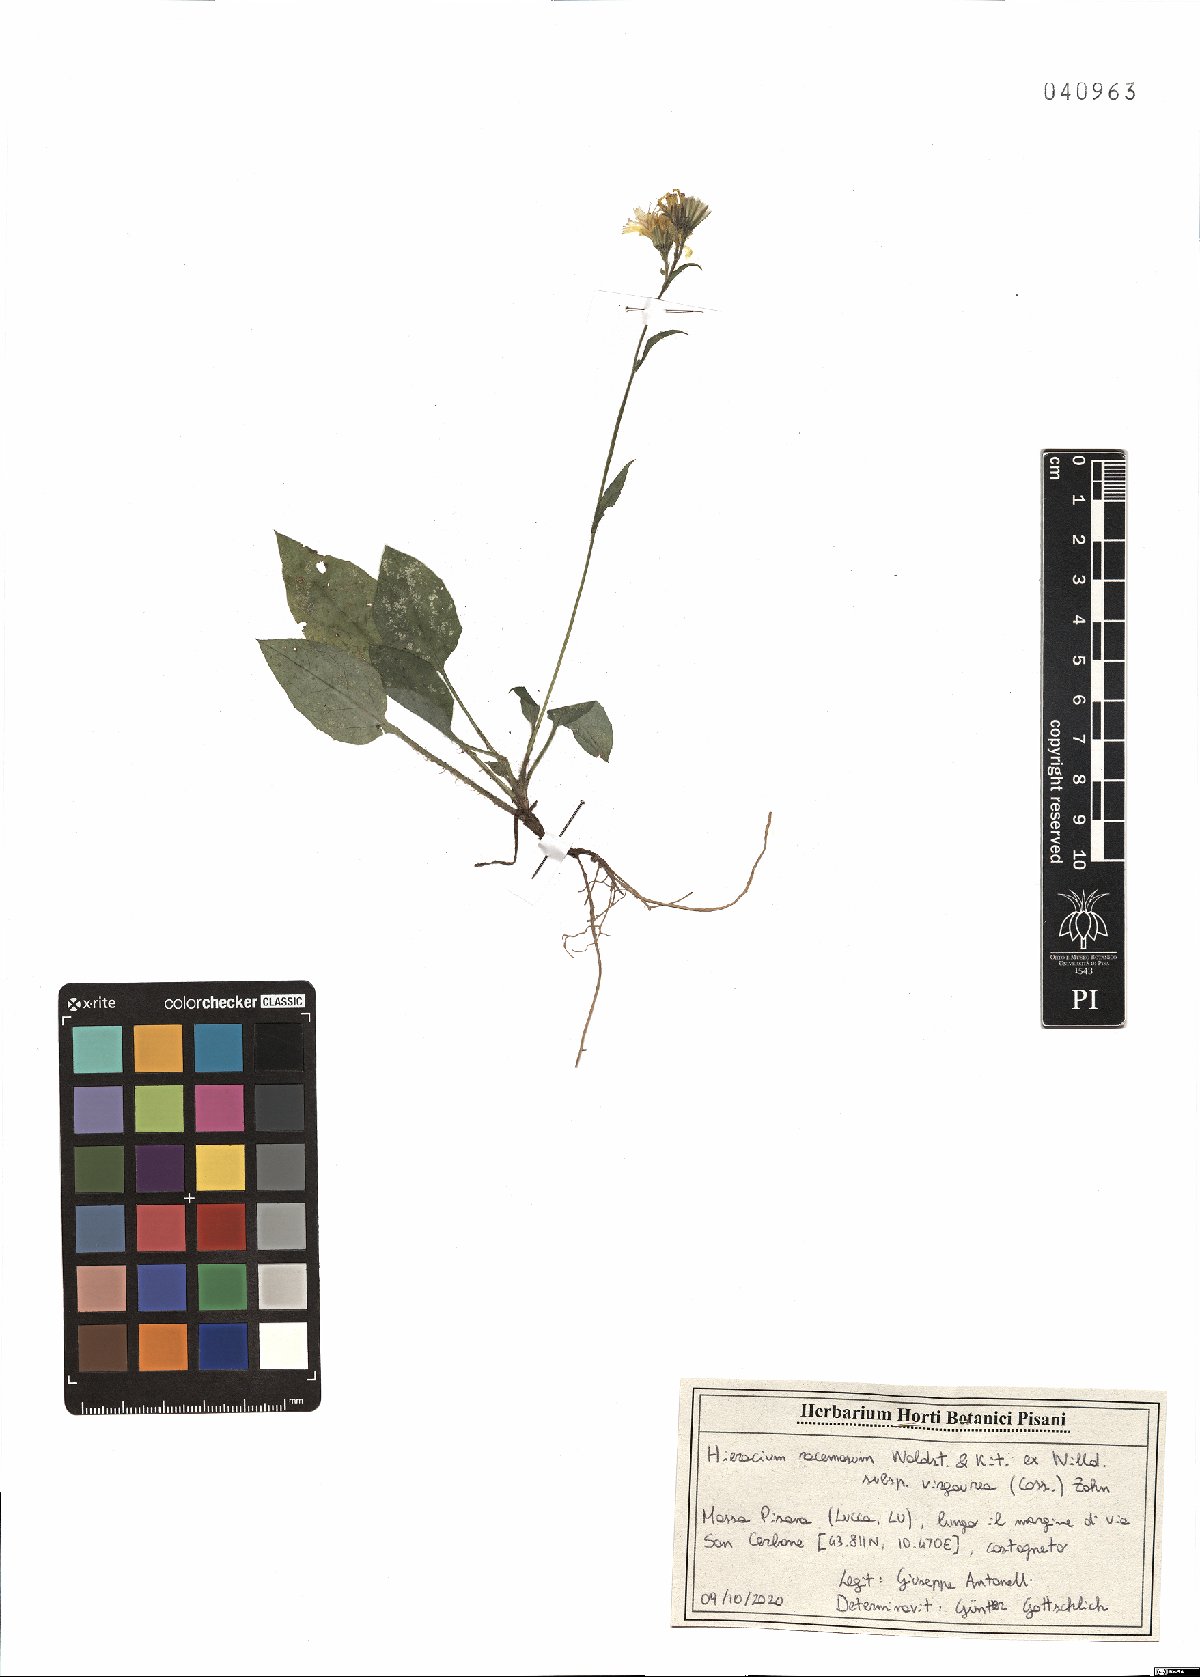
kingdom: Plantae
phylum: Tracheophyta
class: Magnoliopsida
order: Asterales
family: Asteraceae
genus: Hieracium
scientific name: Hieracium racemosum
